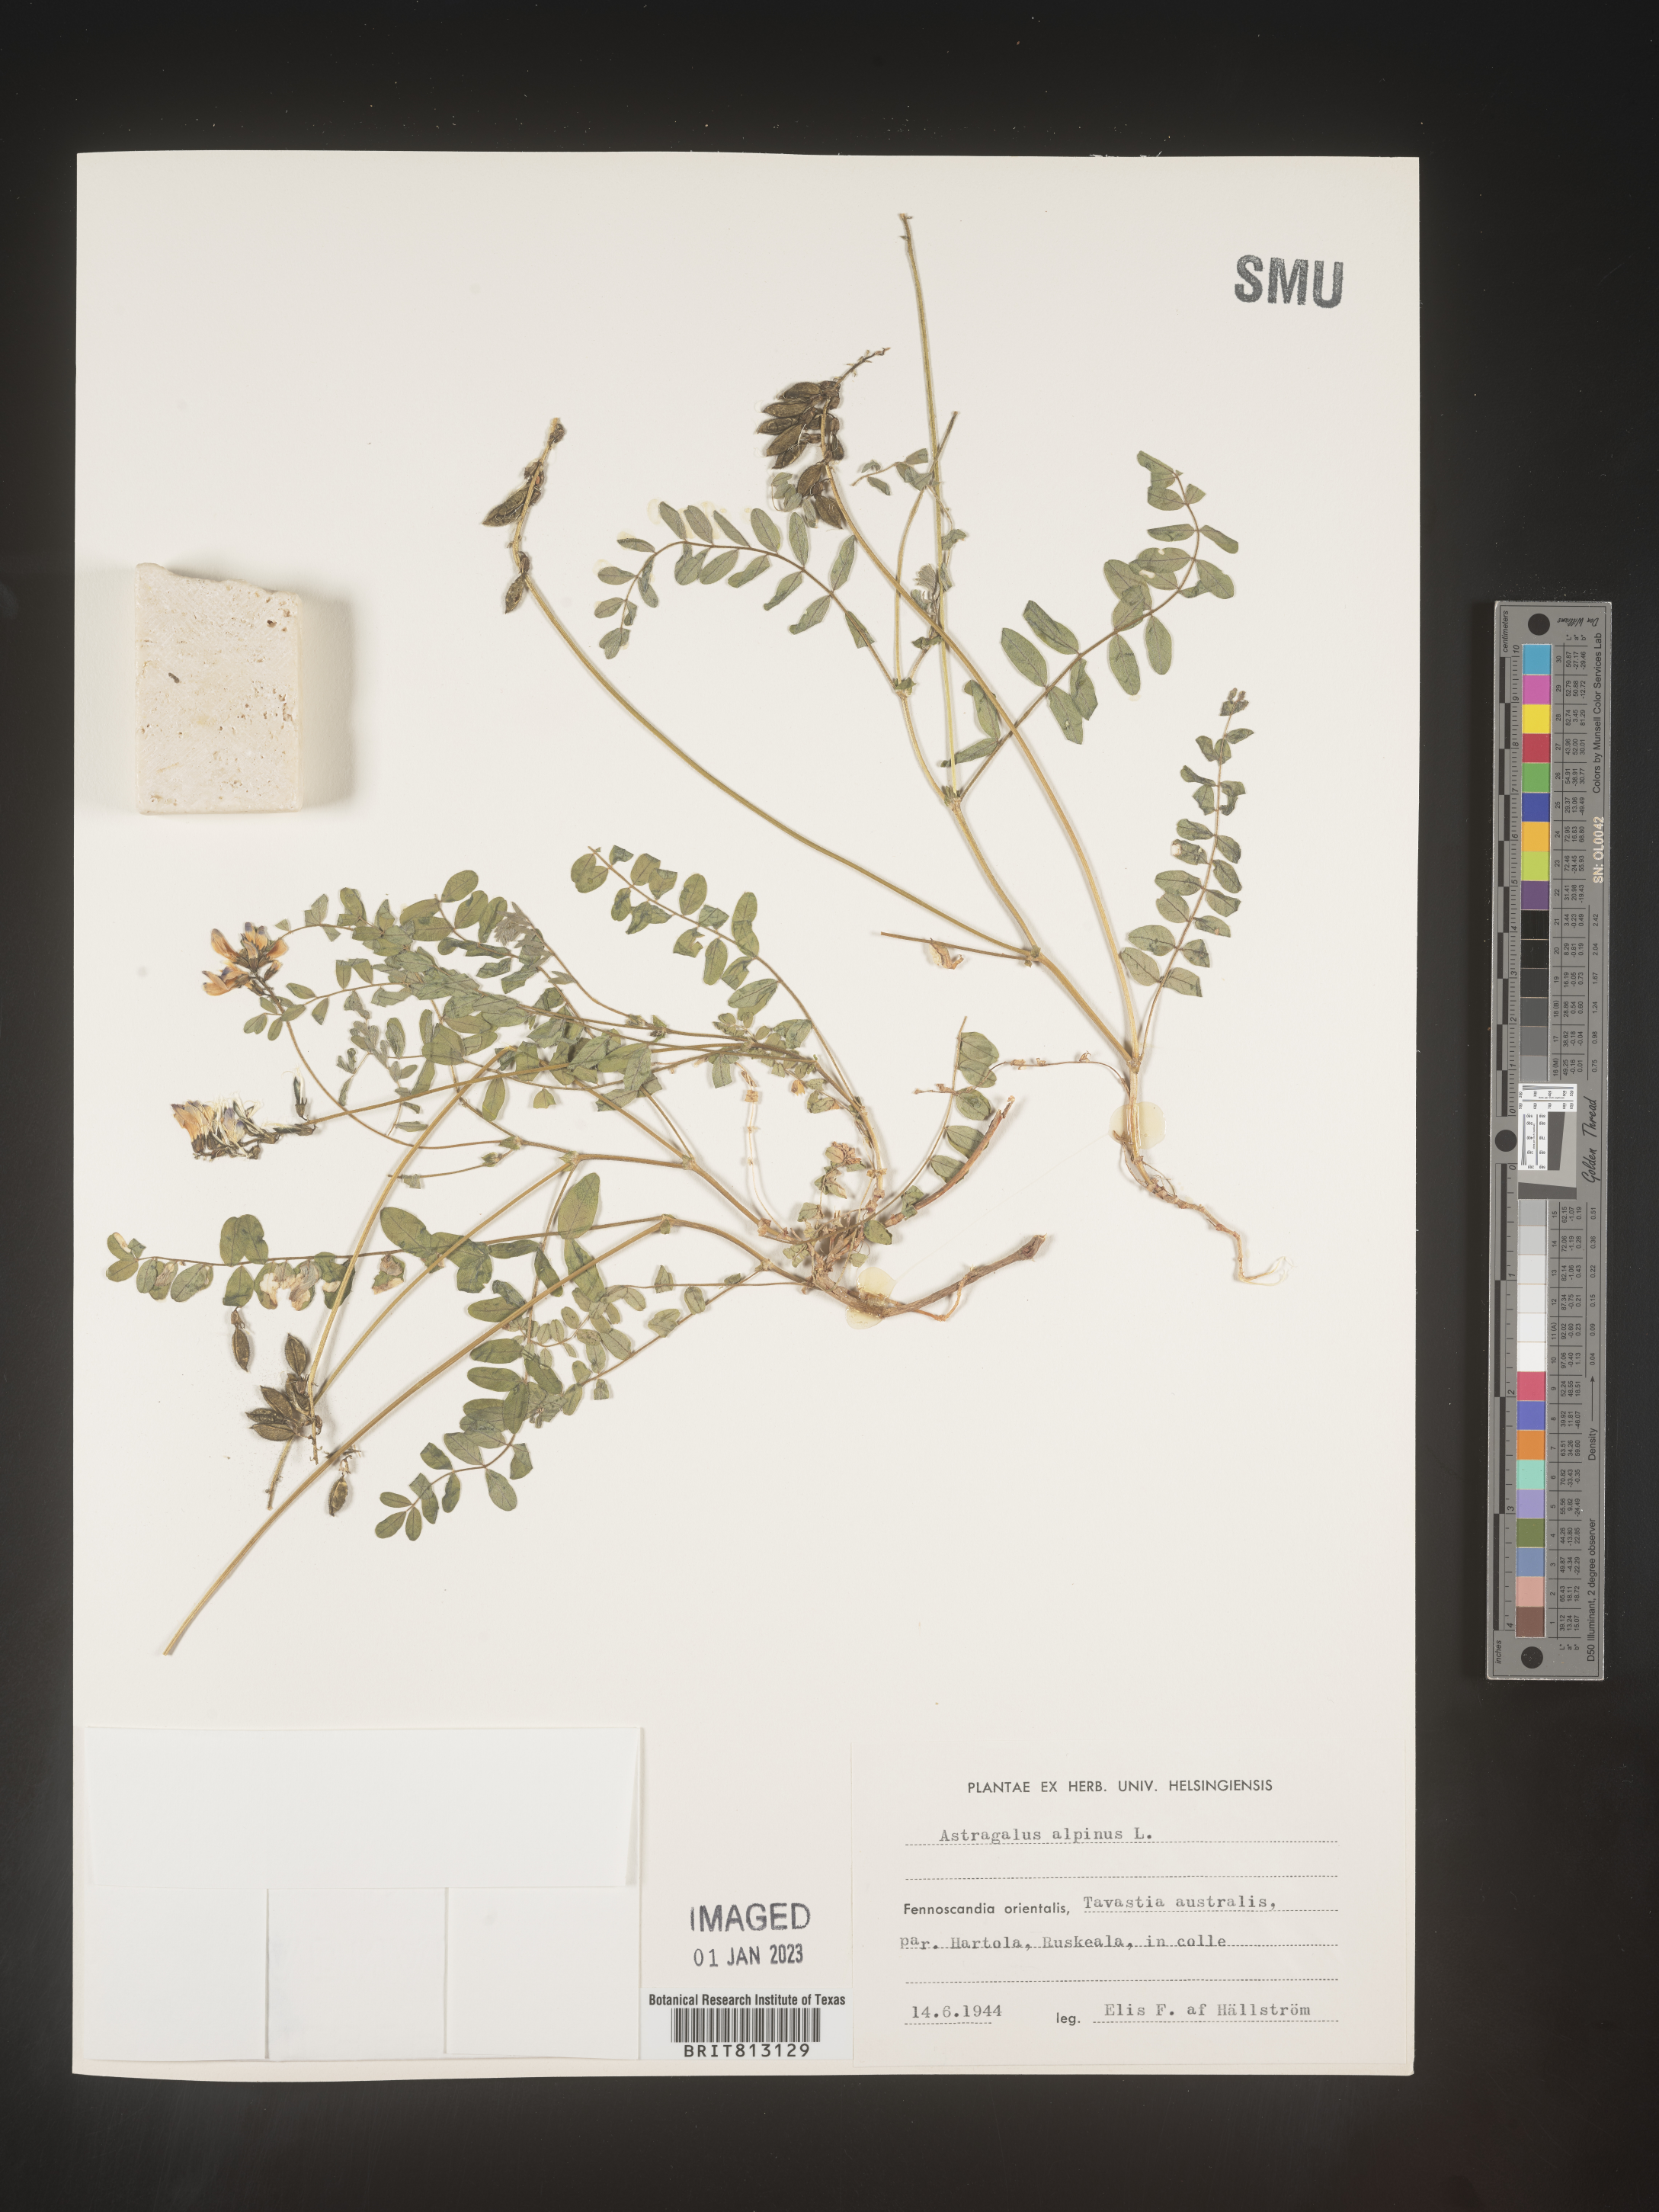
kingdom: Plantae
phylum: Tracheophyta
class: Magnoliopsida
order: Fabales
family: Fabaceae
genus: Astragalus
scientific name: Astragalus
